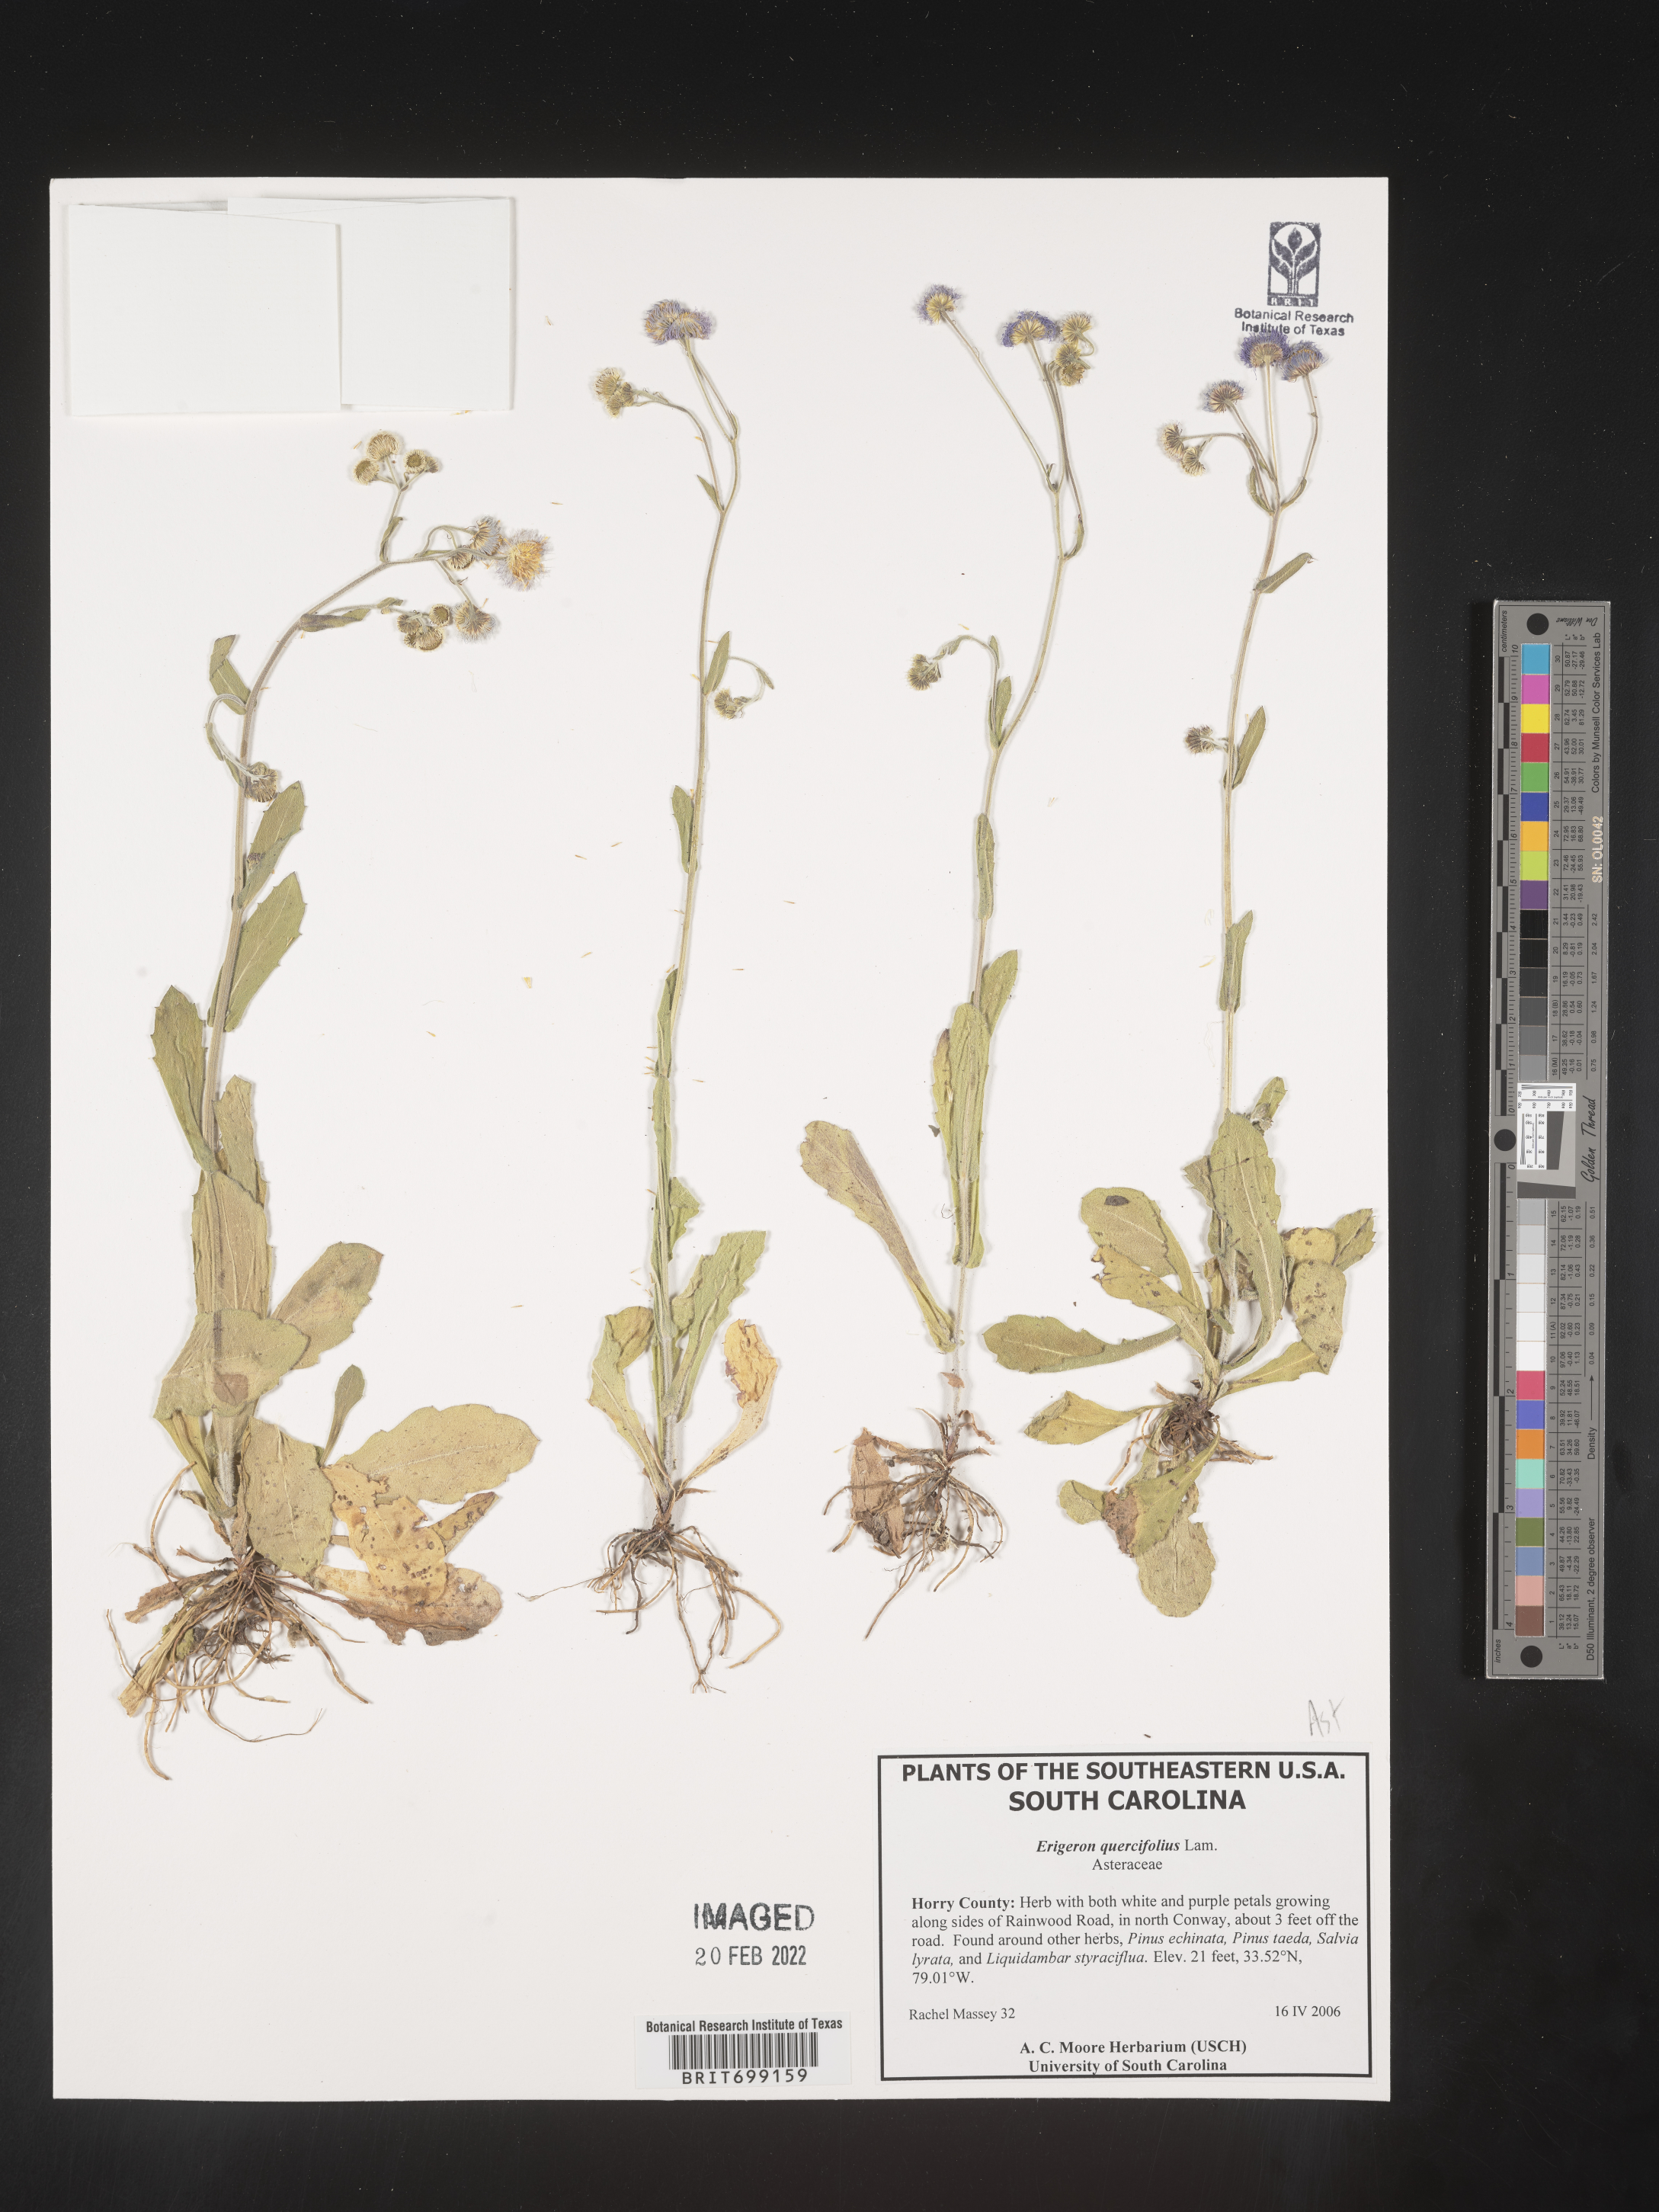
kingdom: Plantae
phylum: Tracheophyta
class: Magnoliopsida
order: Asterales
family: Asteraceae
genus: Erigeron
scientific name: Erigeron quercifolius
